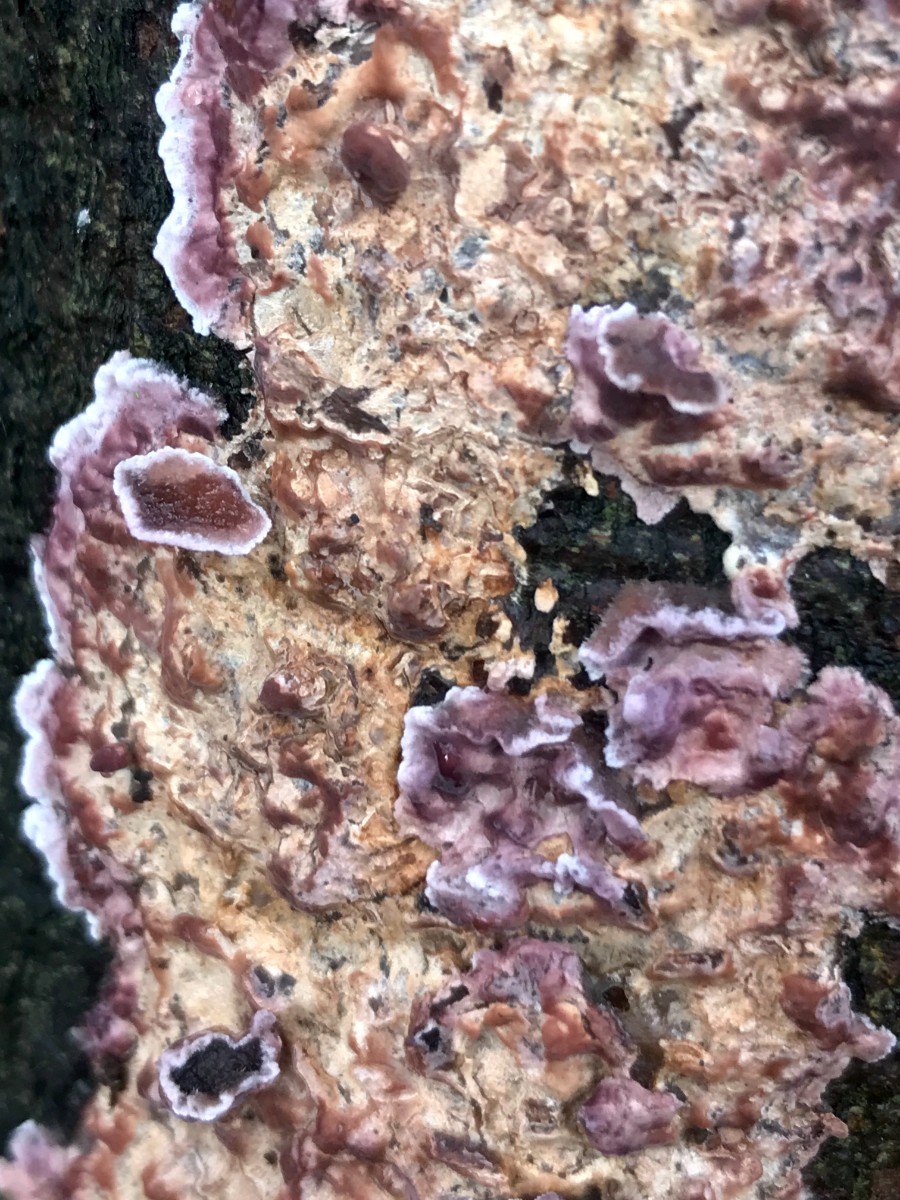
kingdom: Fungi
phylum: Basidiomycota
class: Agaricomycetes
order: Agaricales
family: Cyphellaceae
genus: Chondrostereum
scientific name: Chondrostereum purpureum
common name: purpurlædersvamp
